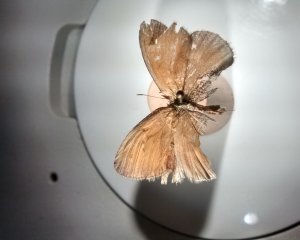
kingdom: Animalia
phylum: Arthropoda
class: Insecta
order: Lepidoptera
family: Nymphalidae
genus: Coenonympha
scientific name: Coenonympha tullia
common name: Large Heath
